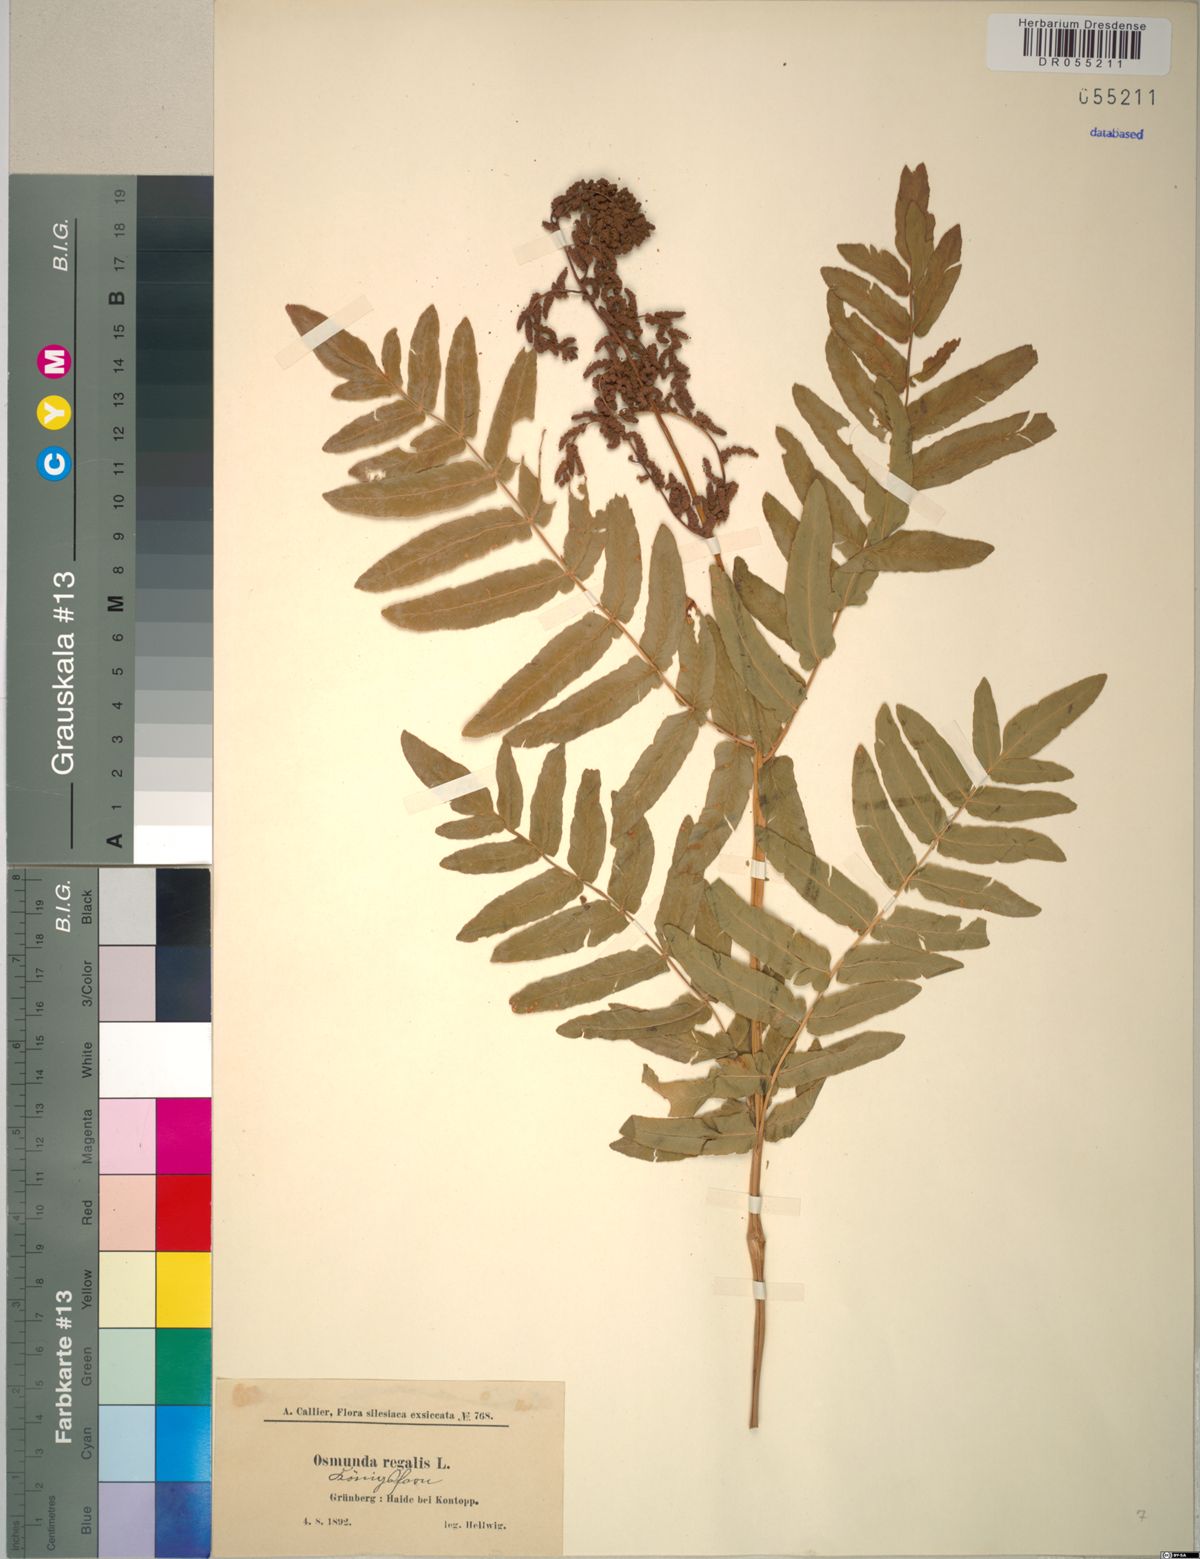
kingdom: Plantae
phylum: Tracheophyta
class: Polypodiopsida
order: Osmundales
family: Osmundaceae
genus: Osmunda
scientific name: Osmunda regalis
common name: Royal fern
